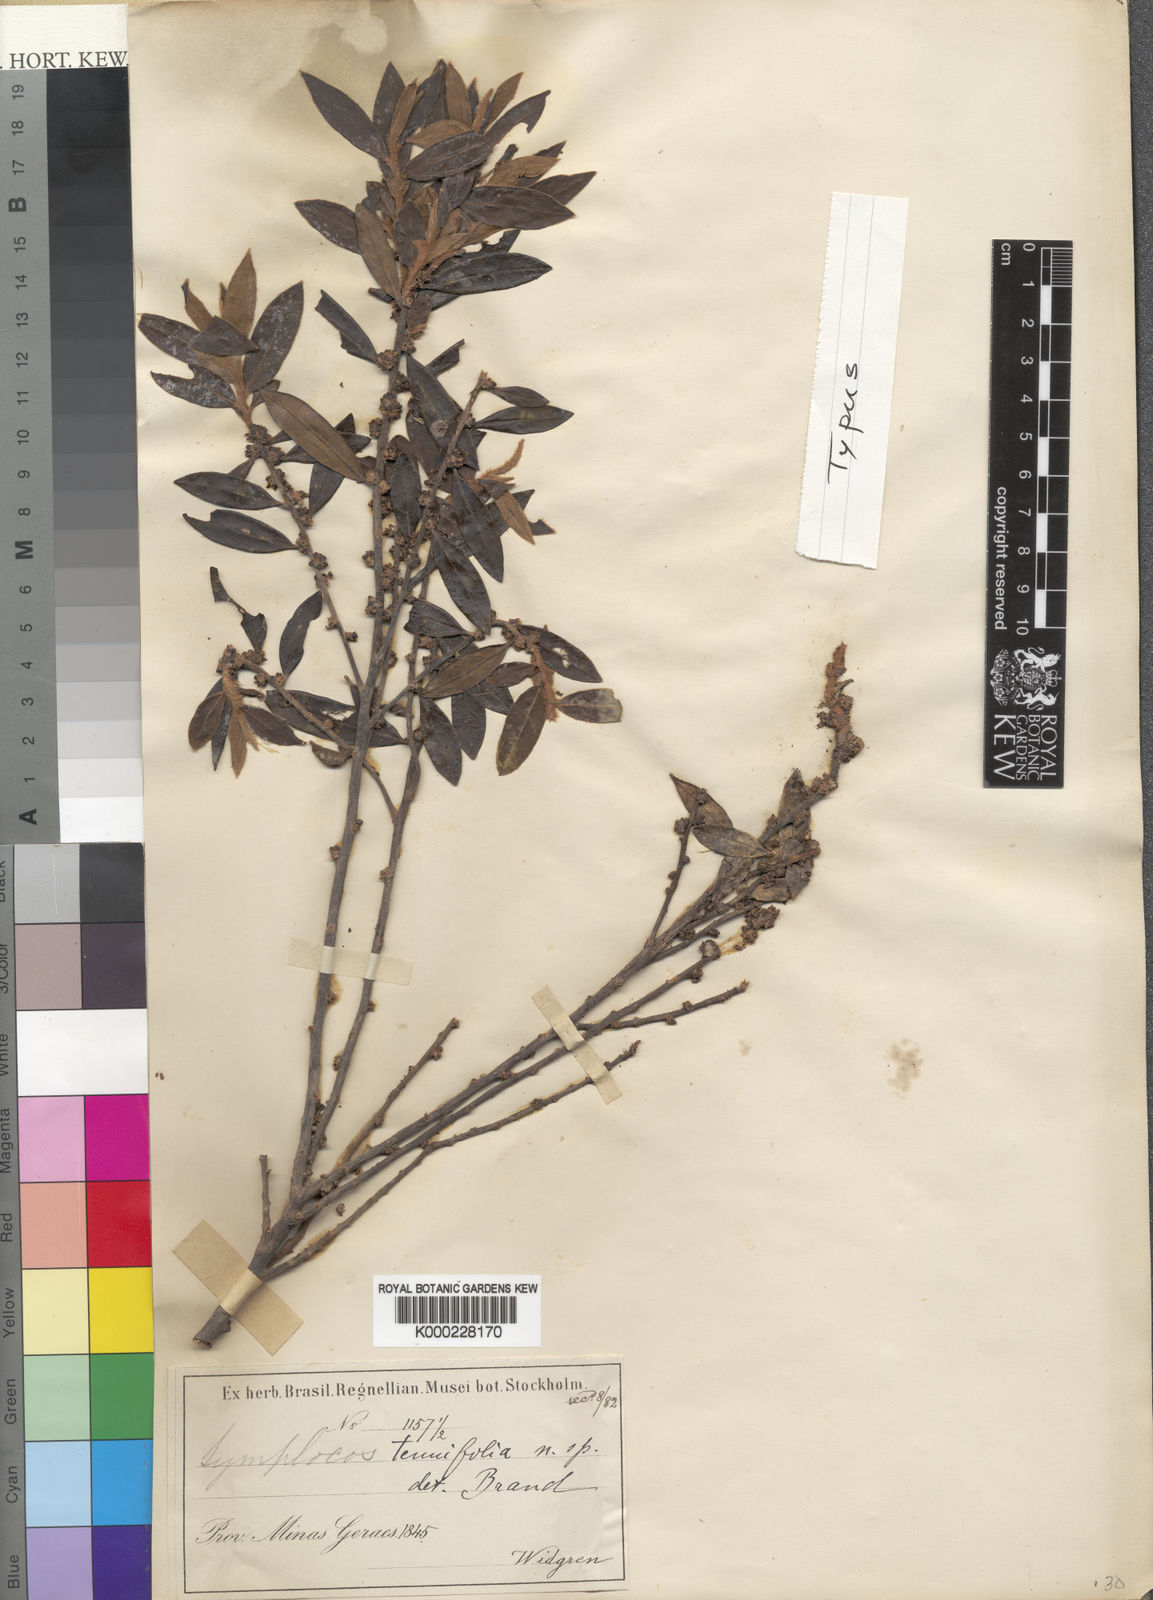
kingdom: Plantae
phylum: Tracheophyta
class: Magnoliopsida
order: Ericales
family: Symplocaceae
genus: Symplocos
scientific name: Symplocos tenuifolia
